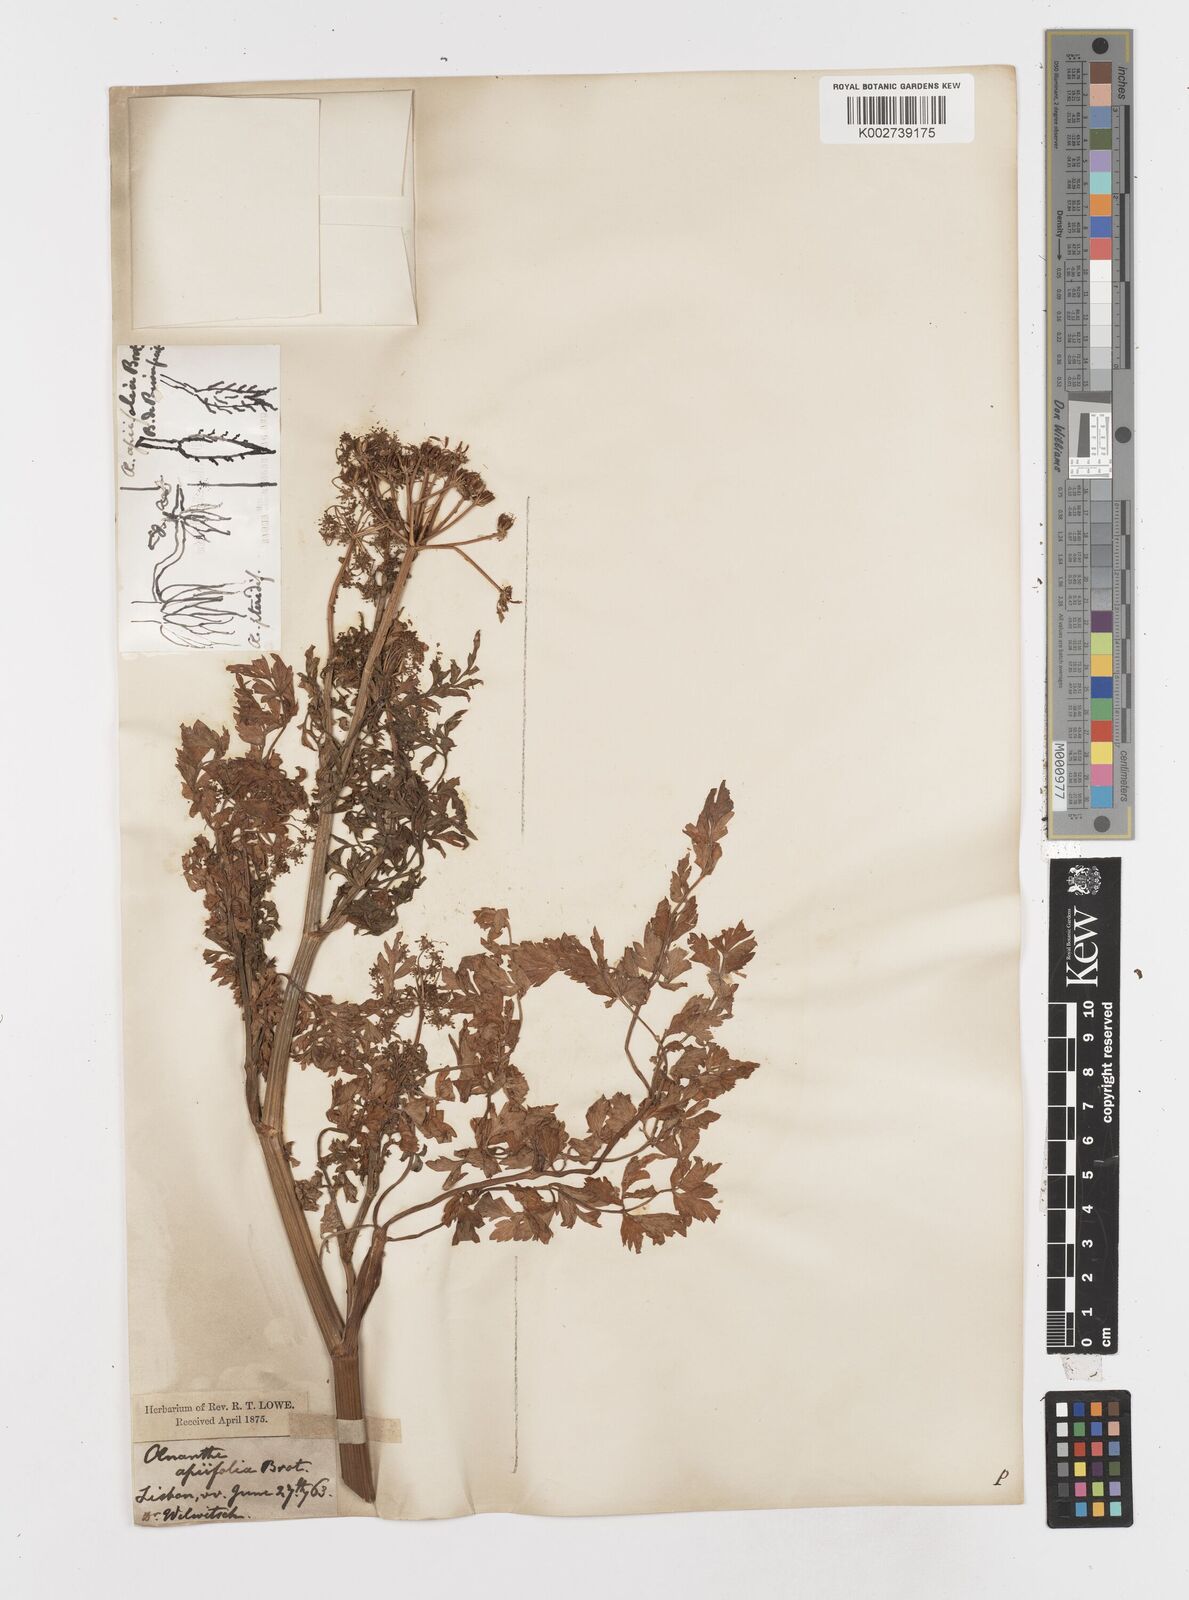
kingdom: Plantae
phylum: Tracheophyta
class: Magnoliopsida
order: Apiales
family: Apiaceae
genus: Oenanthe
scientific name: Oenanthe crocata
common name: Hemlock water-dropwort
